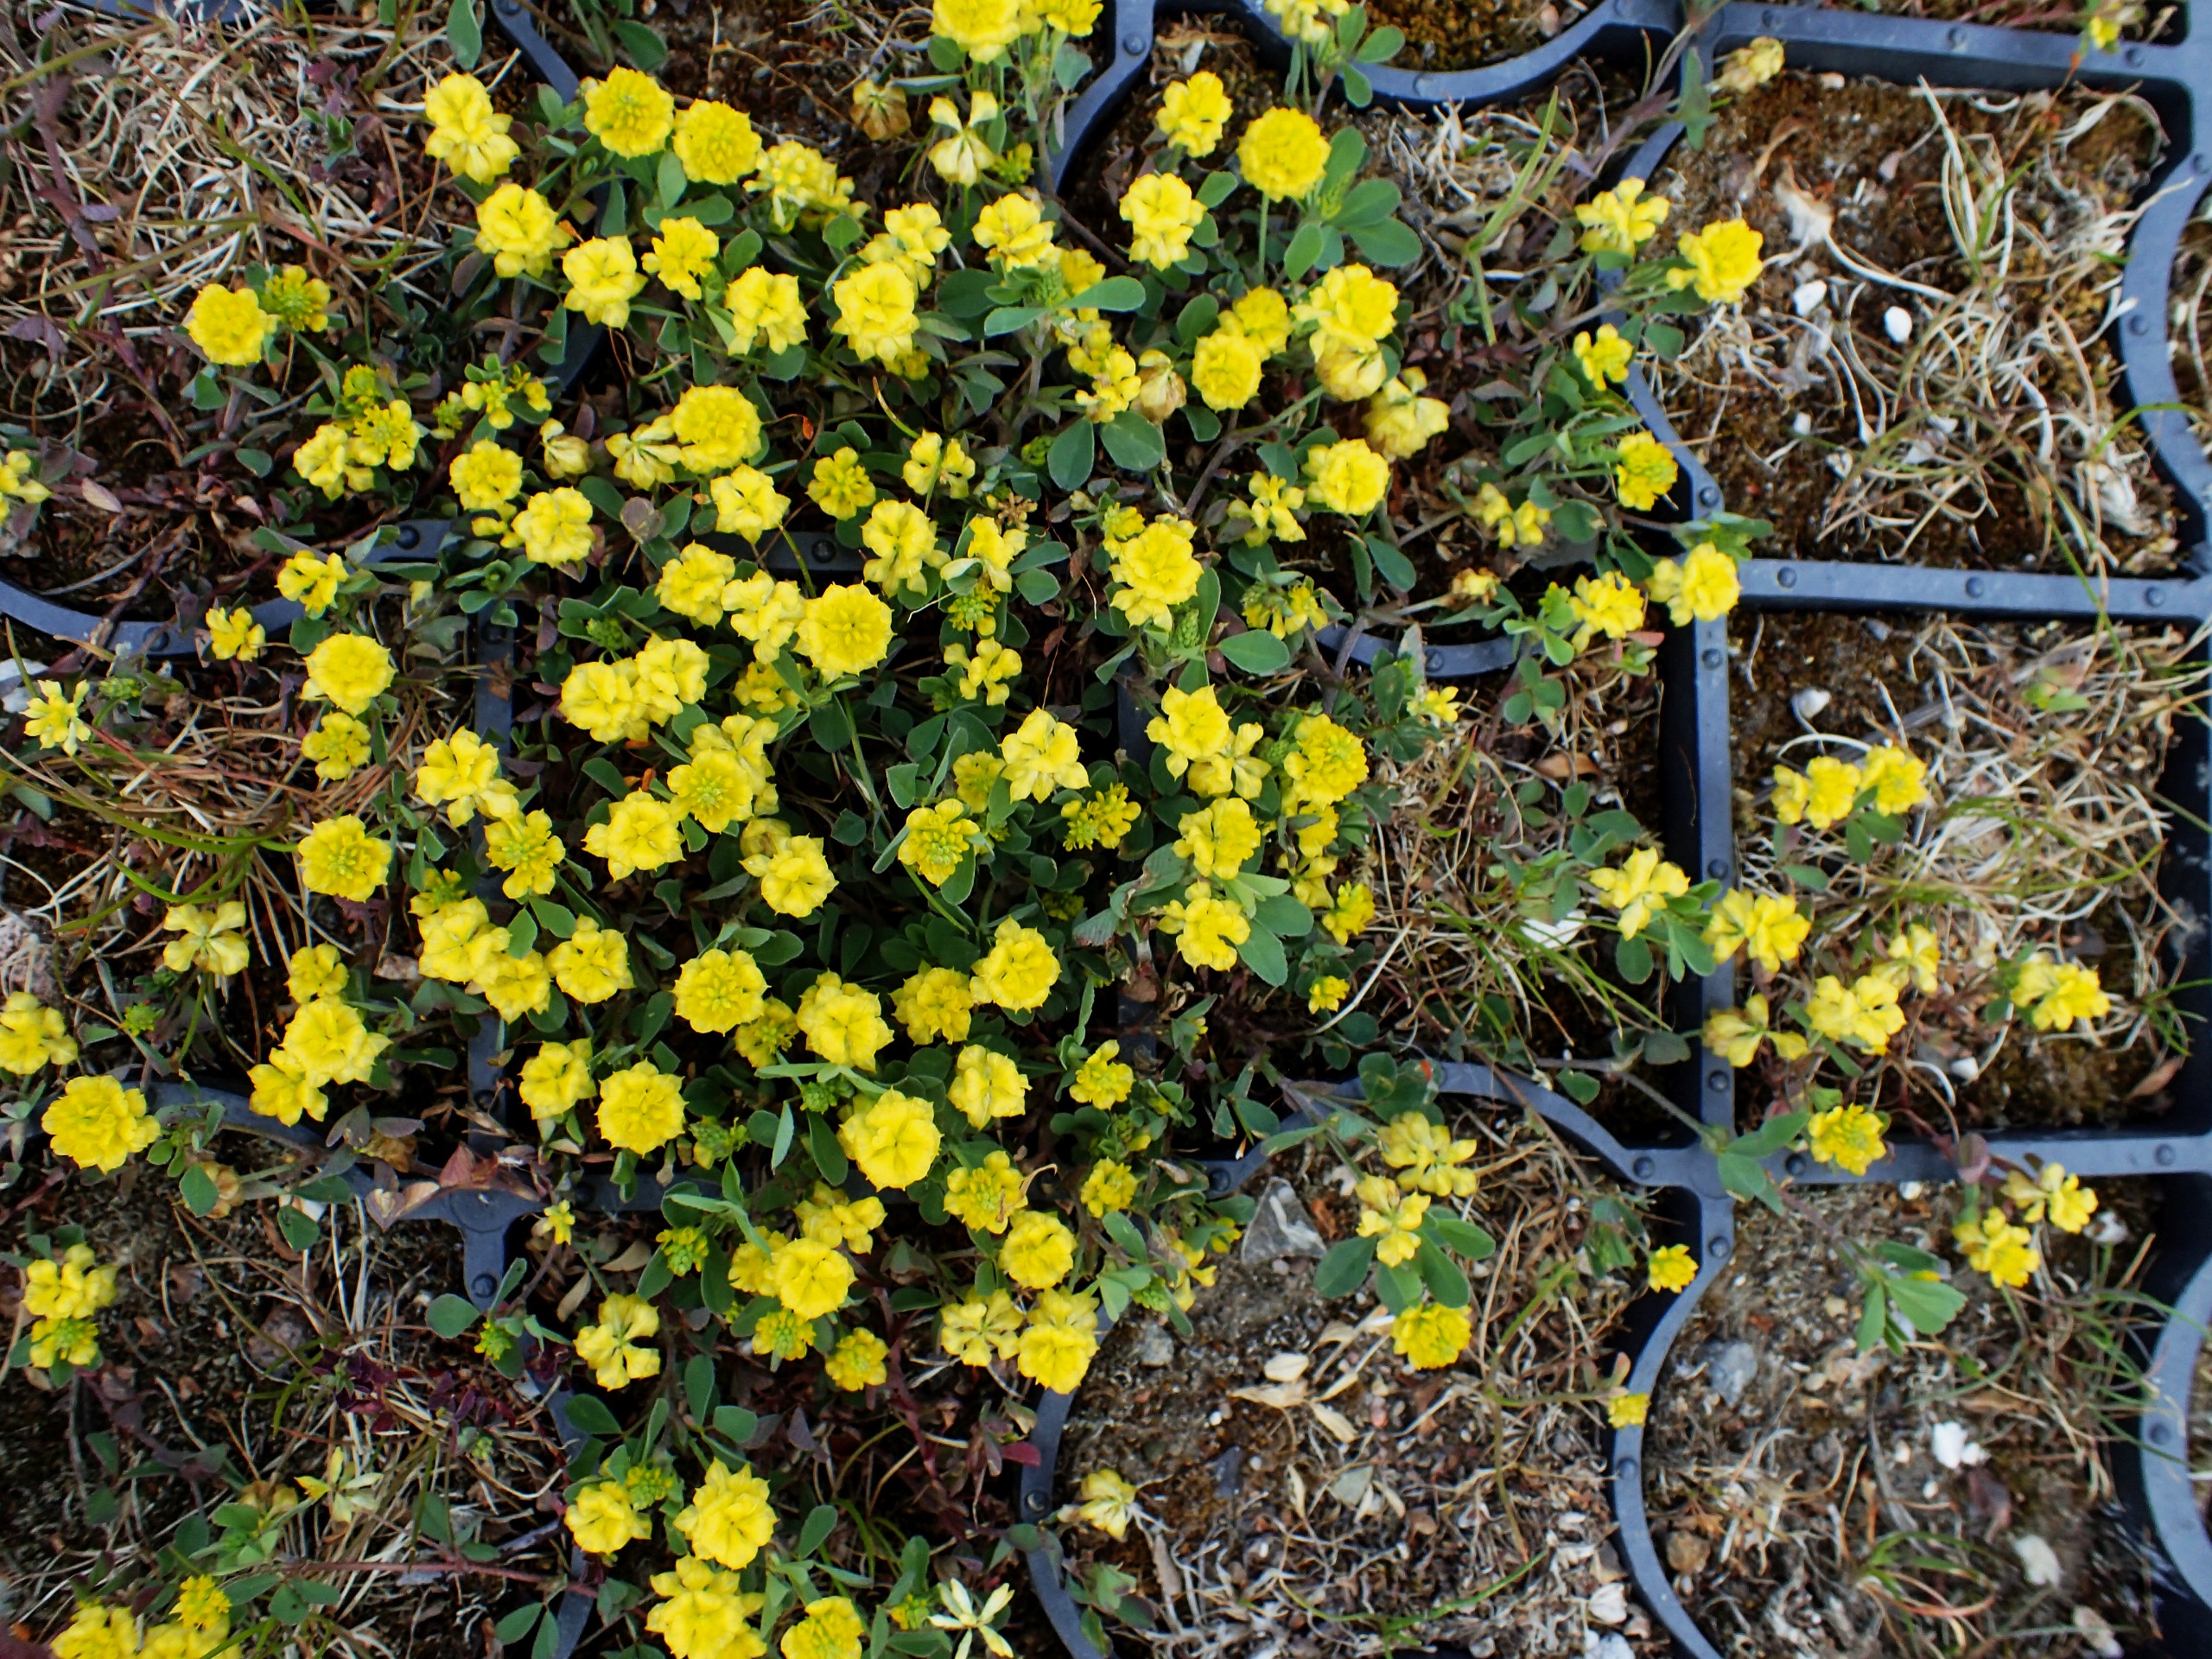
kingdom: Plantae
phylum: Tracheophyta
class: Magnoliopsida
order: Fabales
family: Fabaceae
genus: Trifolium
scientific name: Trifolium campestre
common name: Gul kløver
